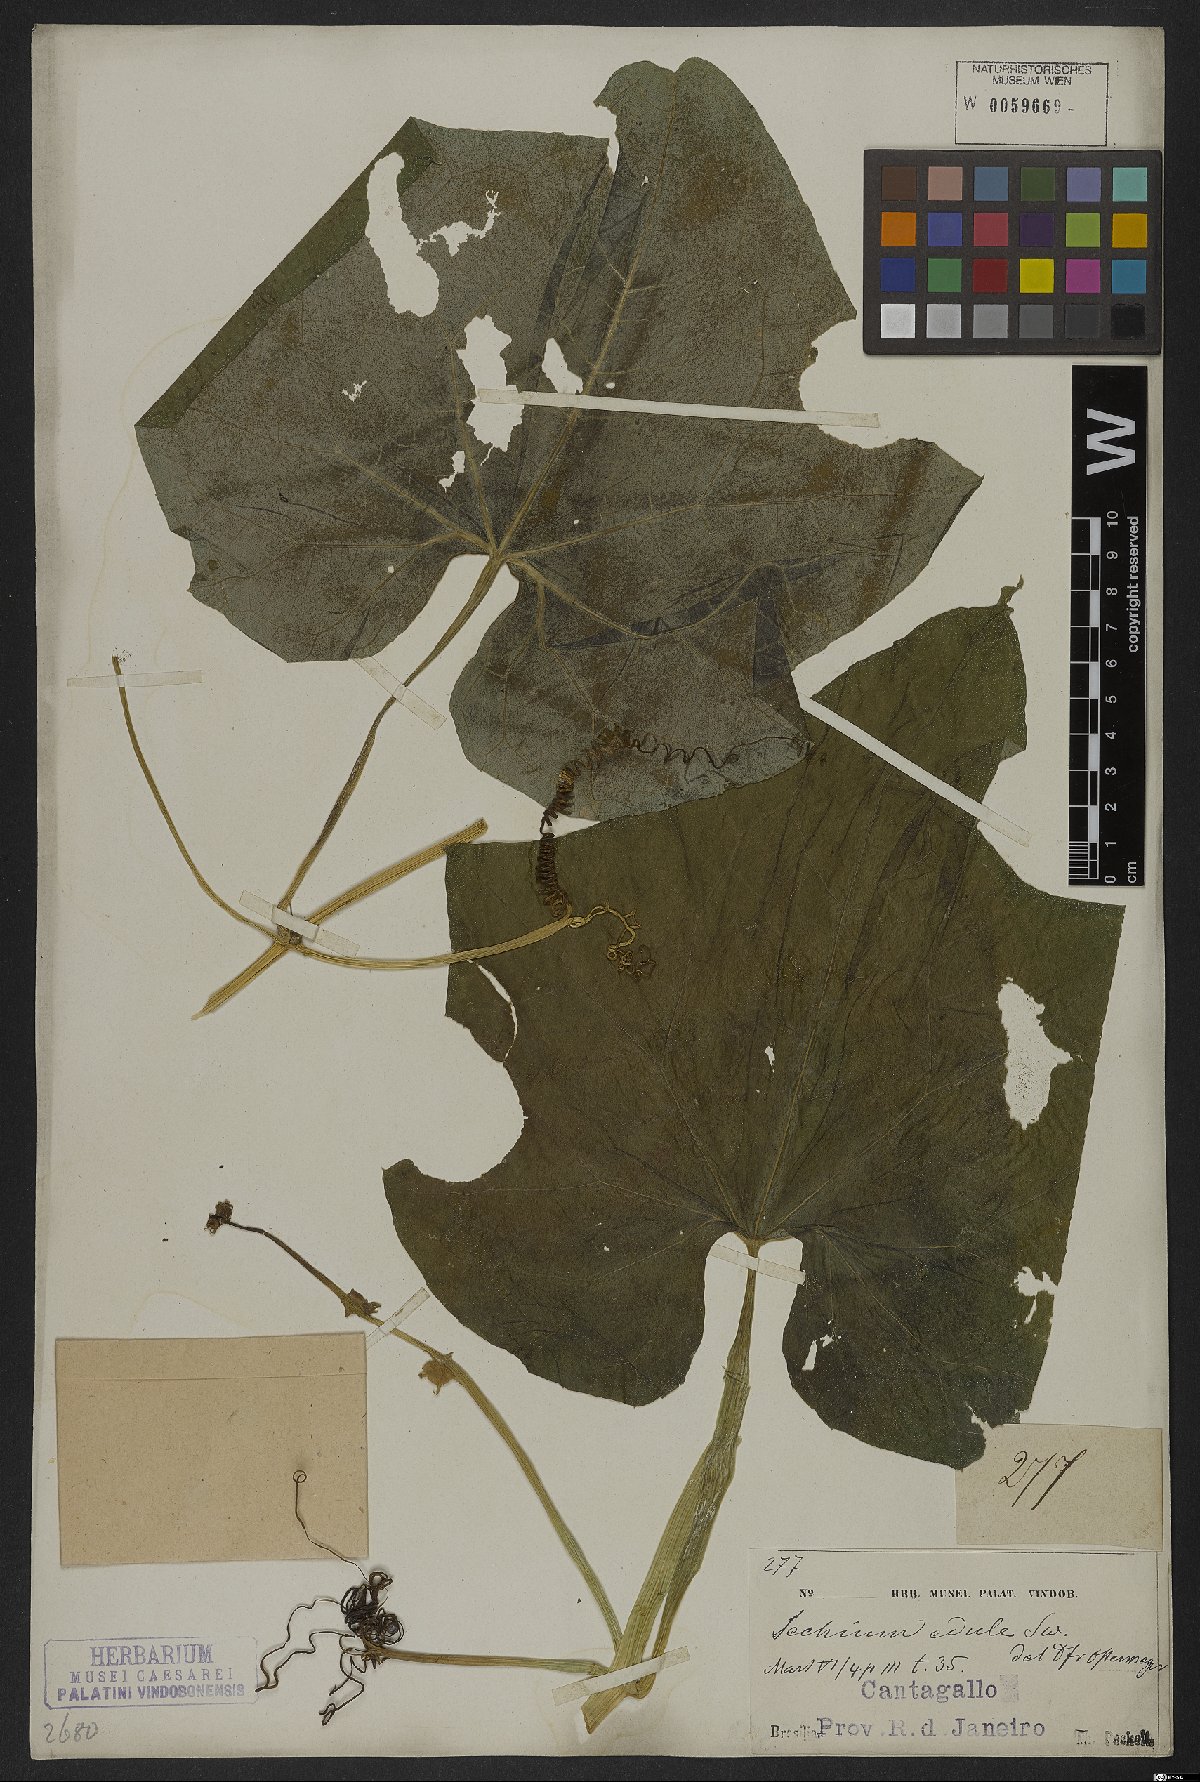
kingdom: Plantae
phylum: Tracheophyta
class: Magnoliopsida
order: Cucurbitales
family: Cucurbitaceae
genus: Sechium
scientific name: Sechium edule
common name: Chayote
